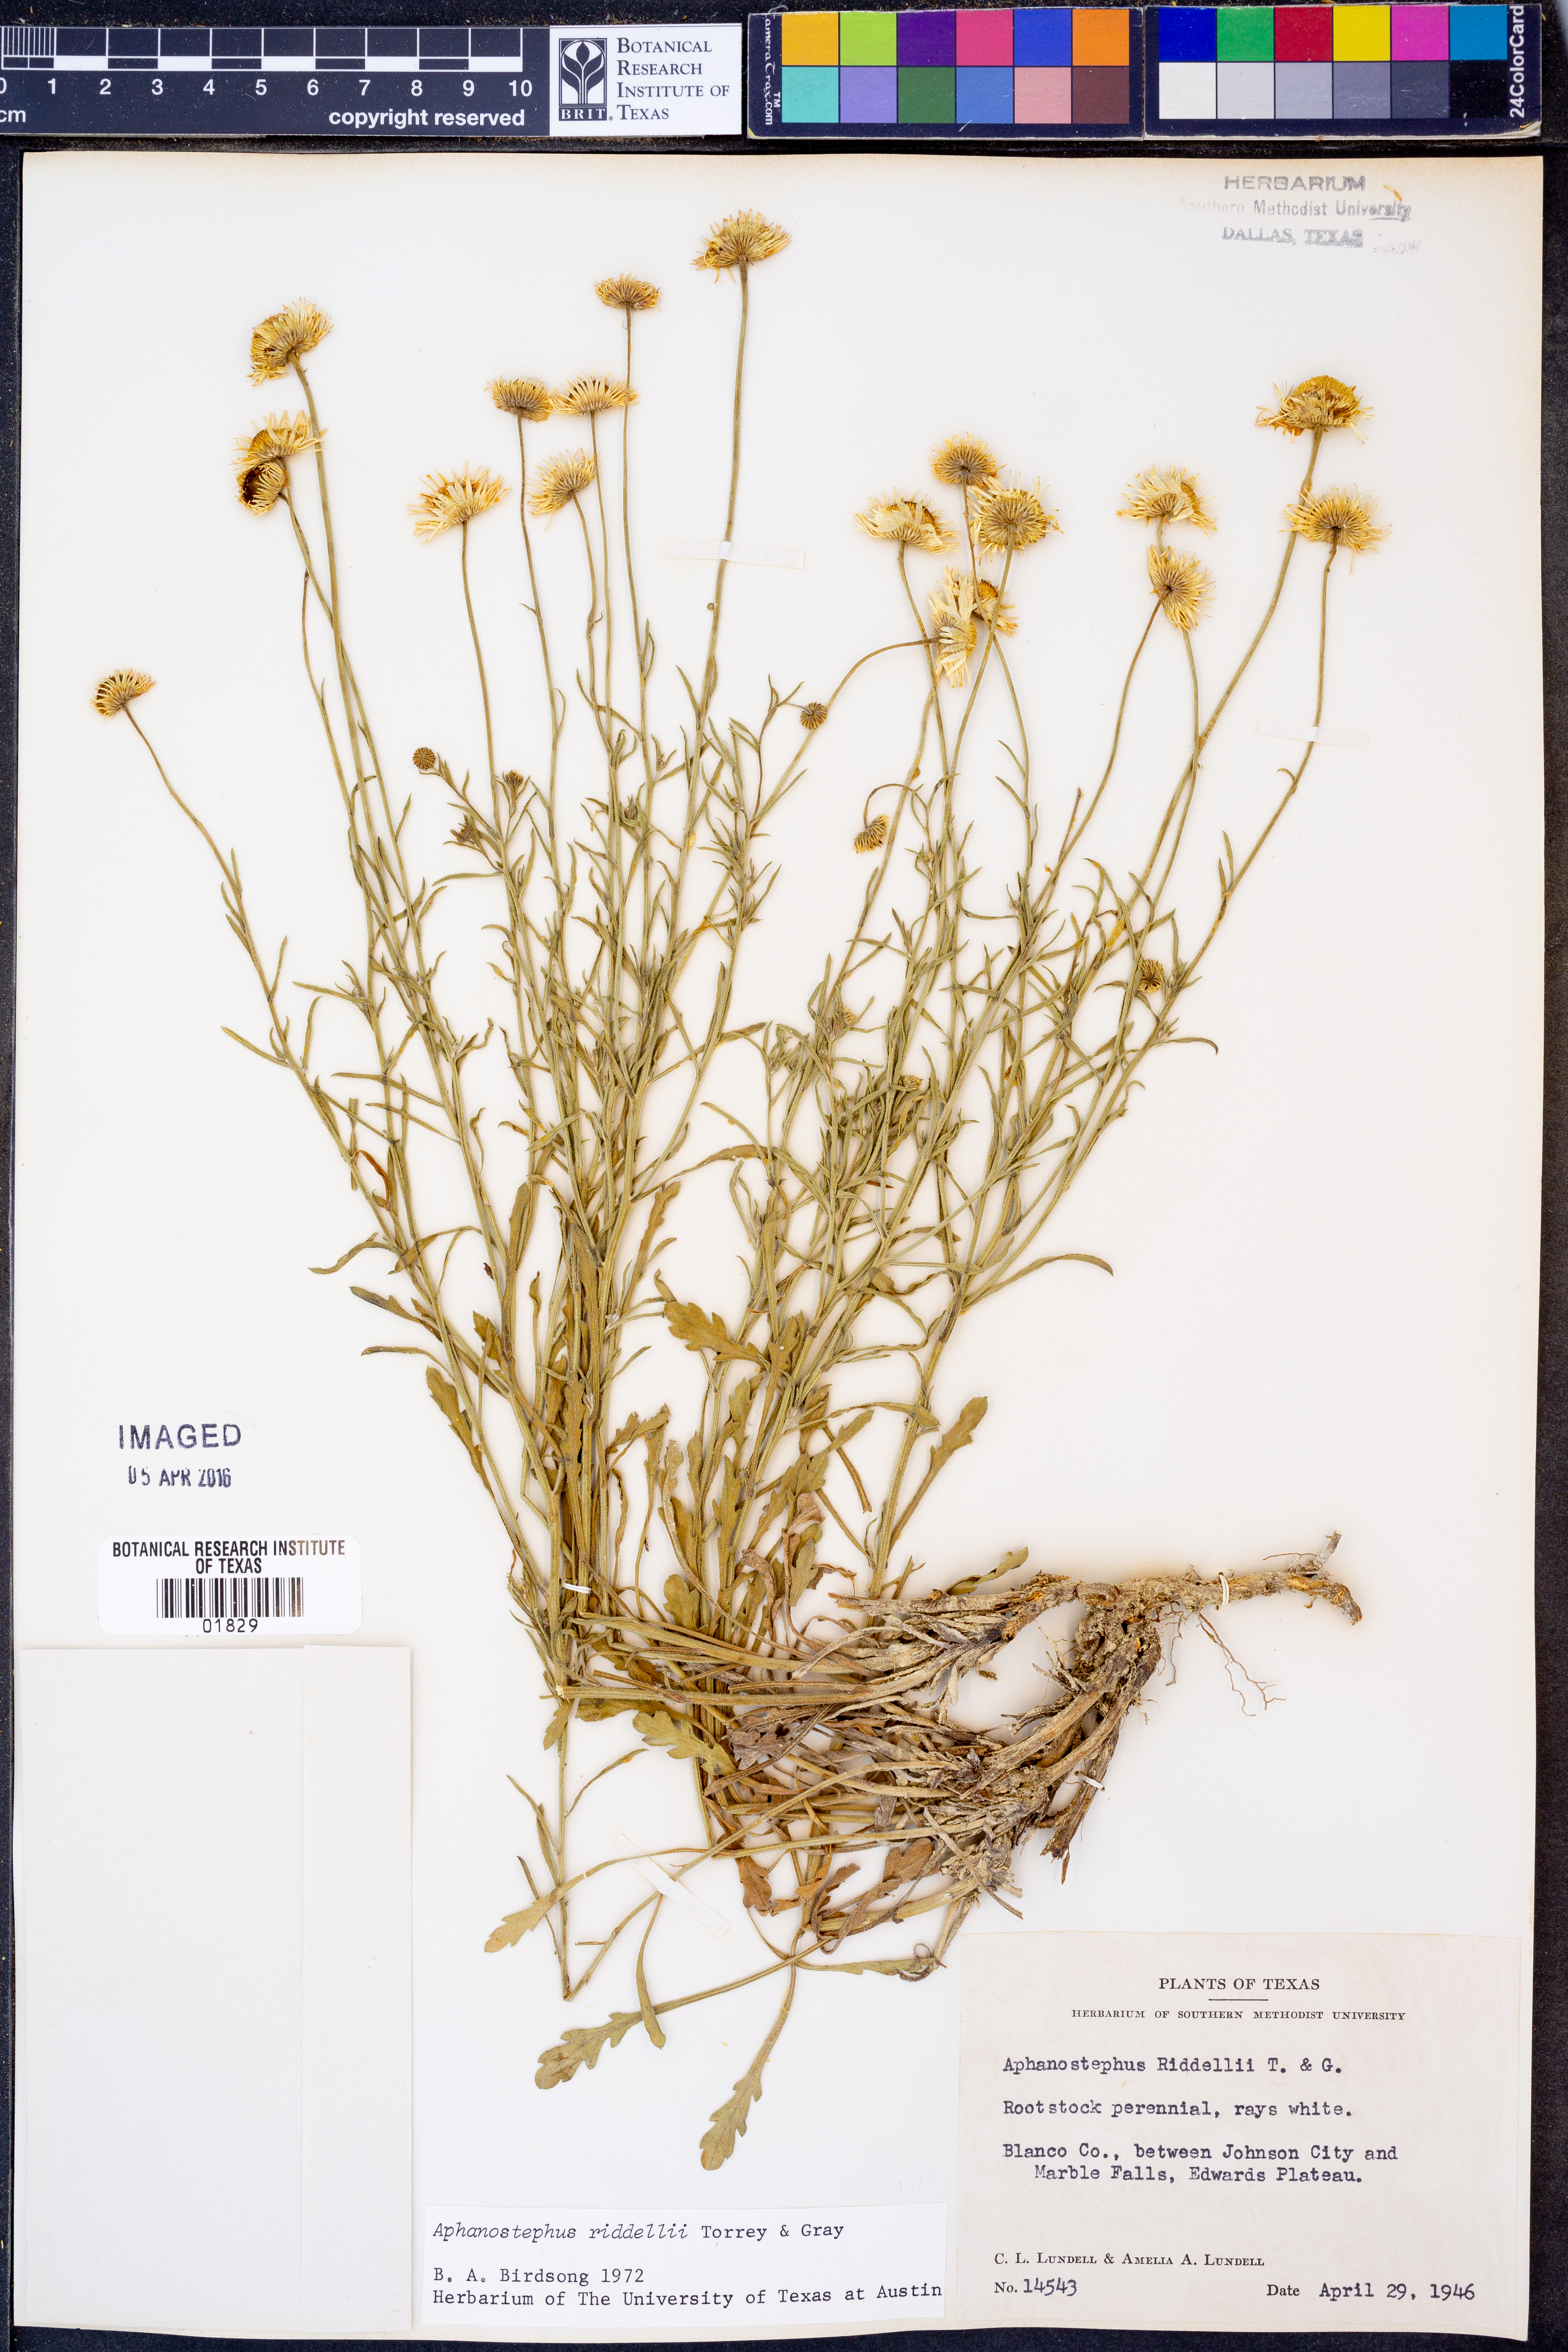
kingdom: Plantae
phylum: Tracheophyta
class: Magnoliopsida
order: Asterales
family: Asteraceae
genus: Aphanostephus
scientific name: Aphanostephus riddellii
